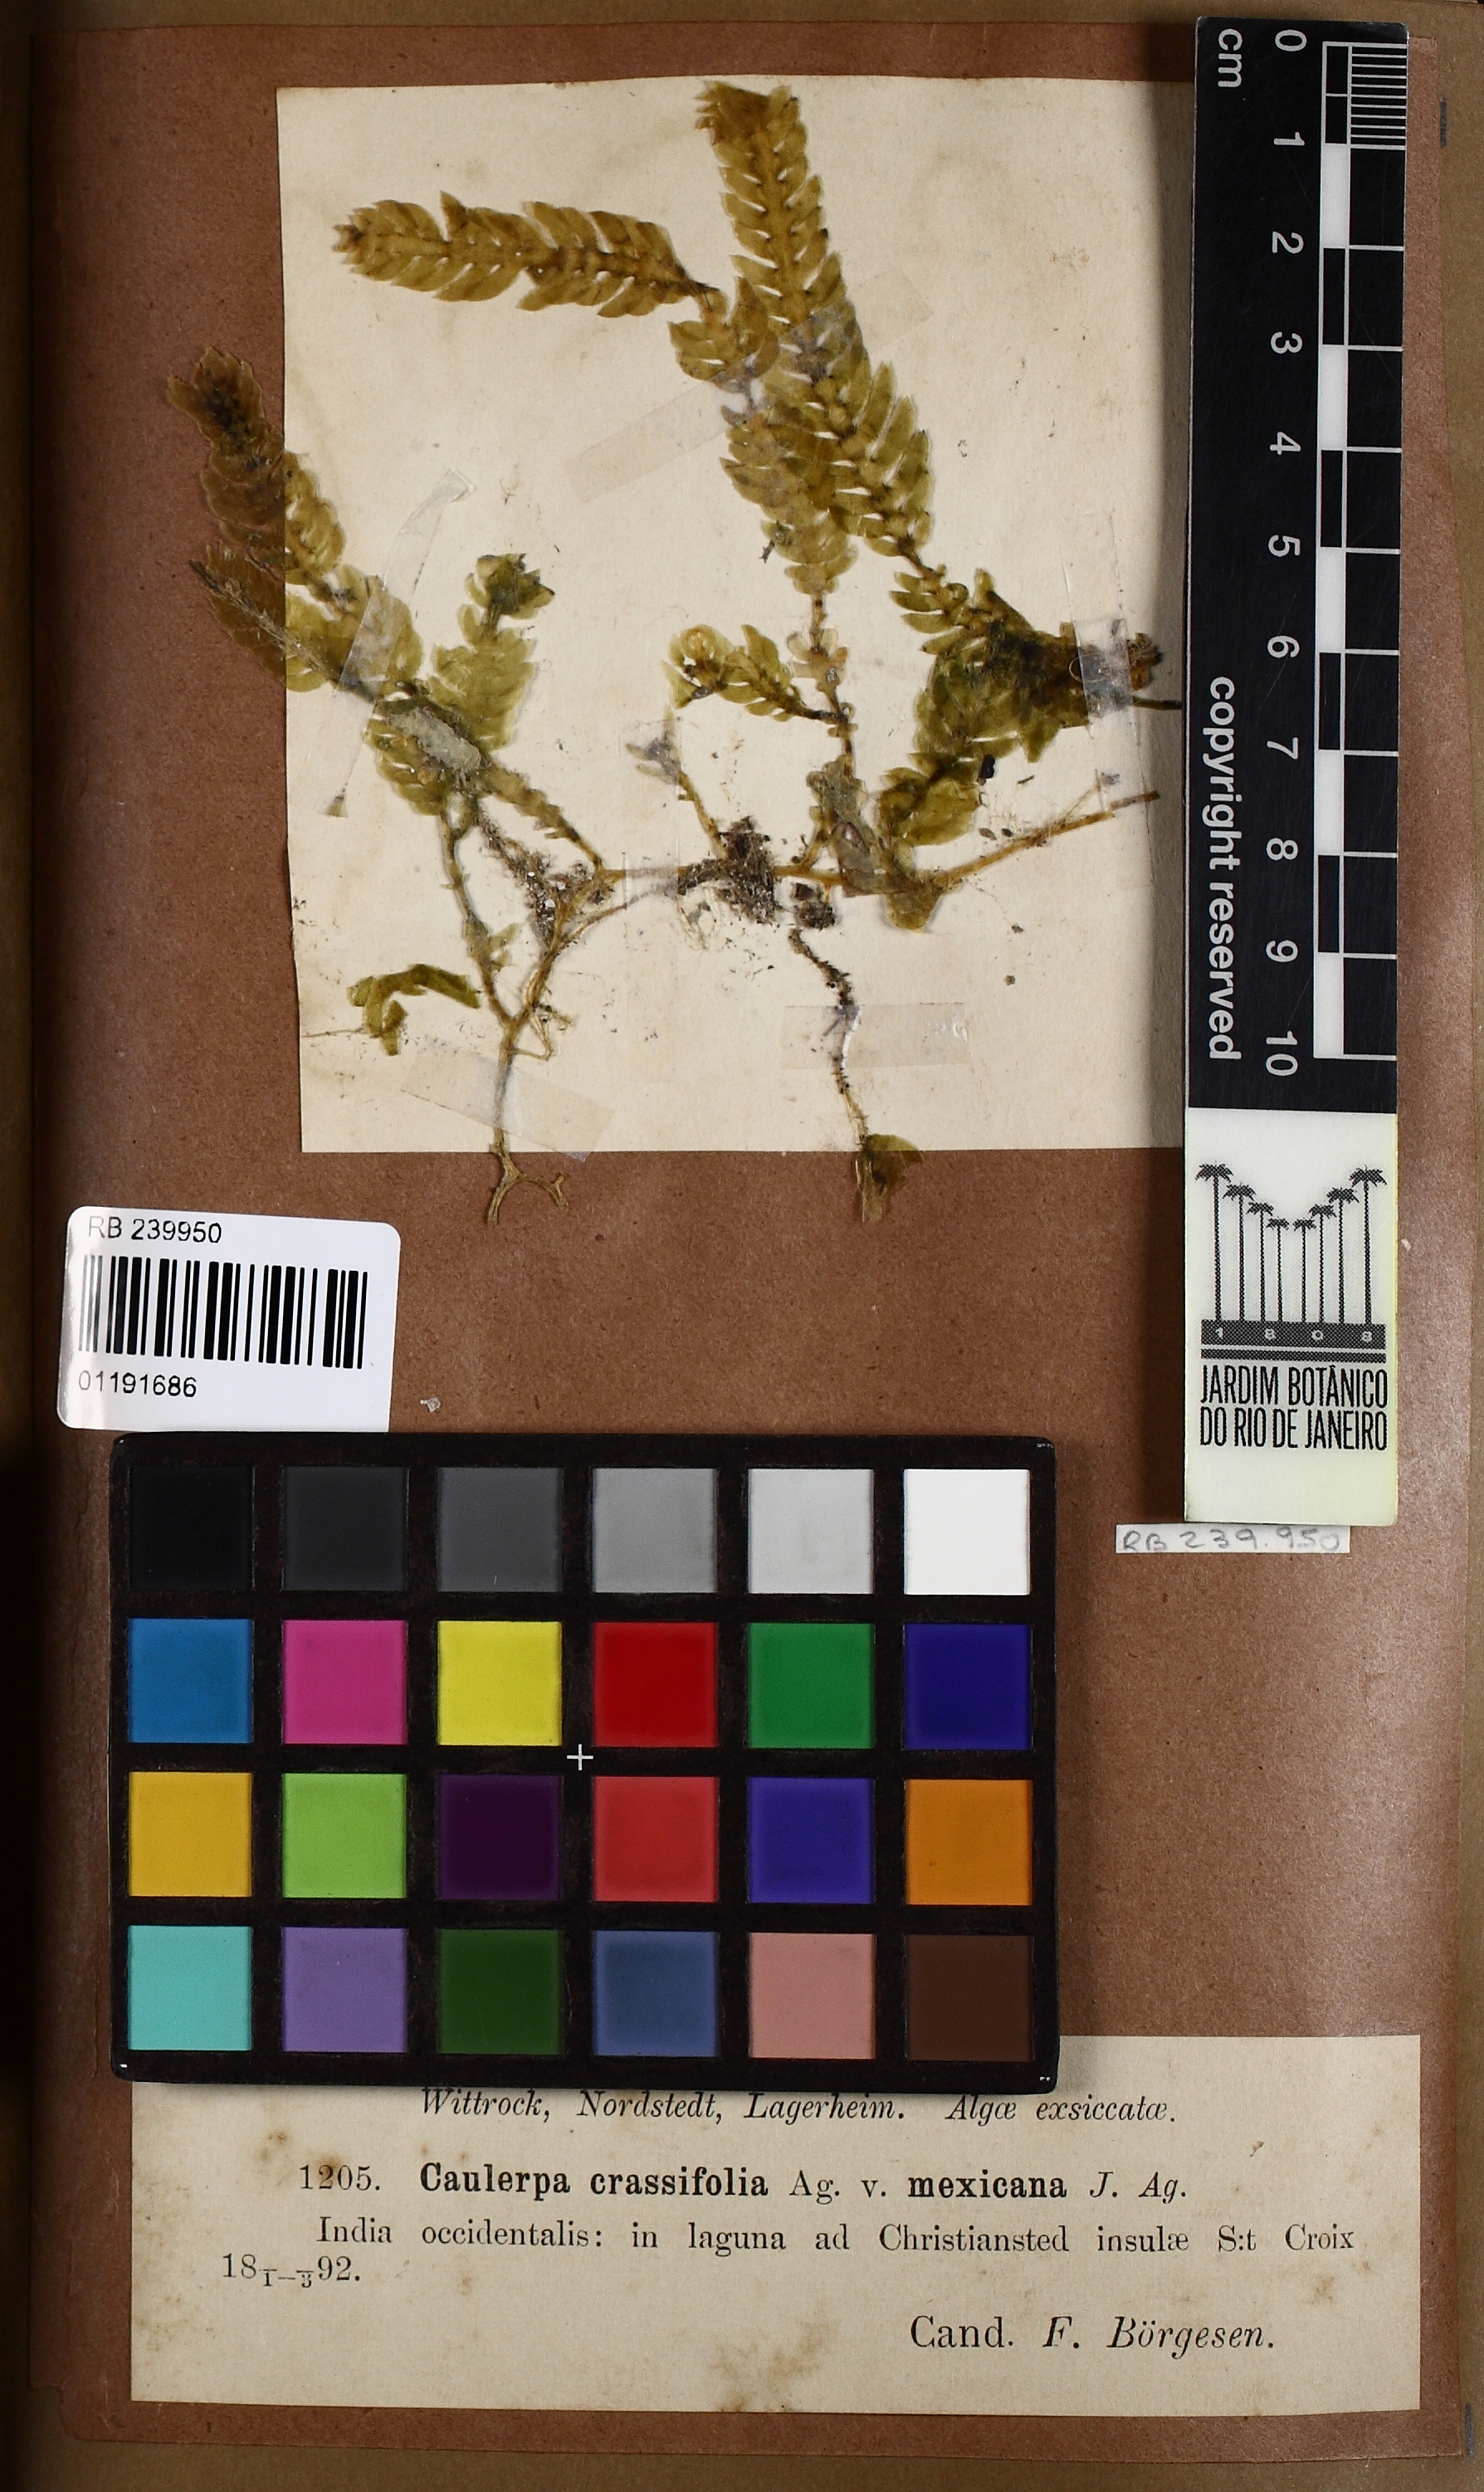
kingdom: Plantae
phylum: Chlorophyta
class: Ulvophyceae
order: Bryopsidales
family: Caulerpaceae
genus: Caulerpa
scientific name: Caulerpa mexicana
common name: Flat green feather algae
